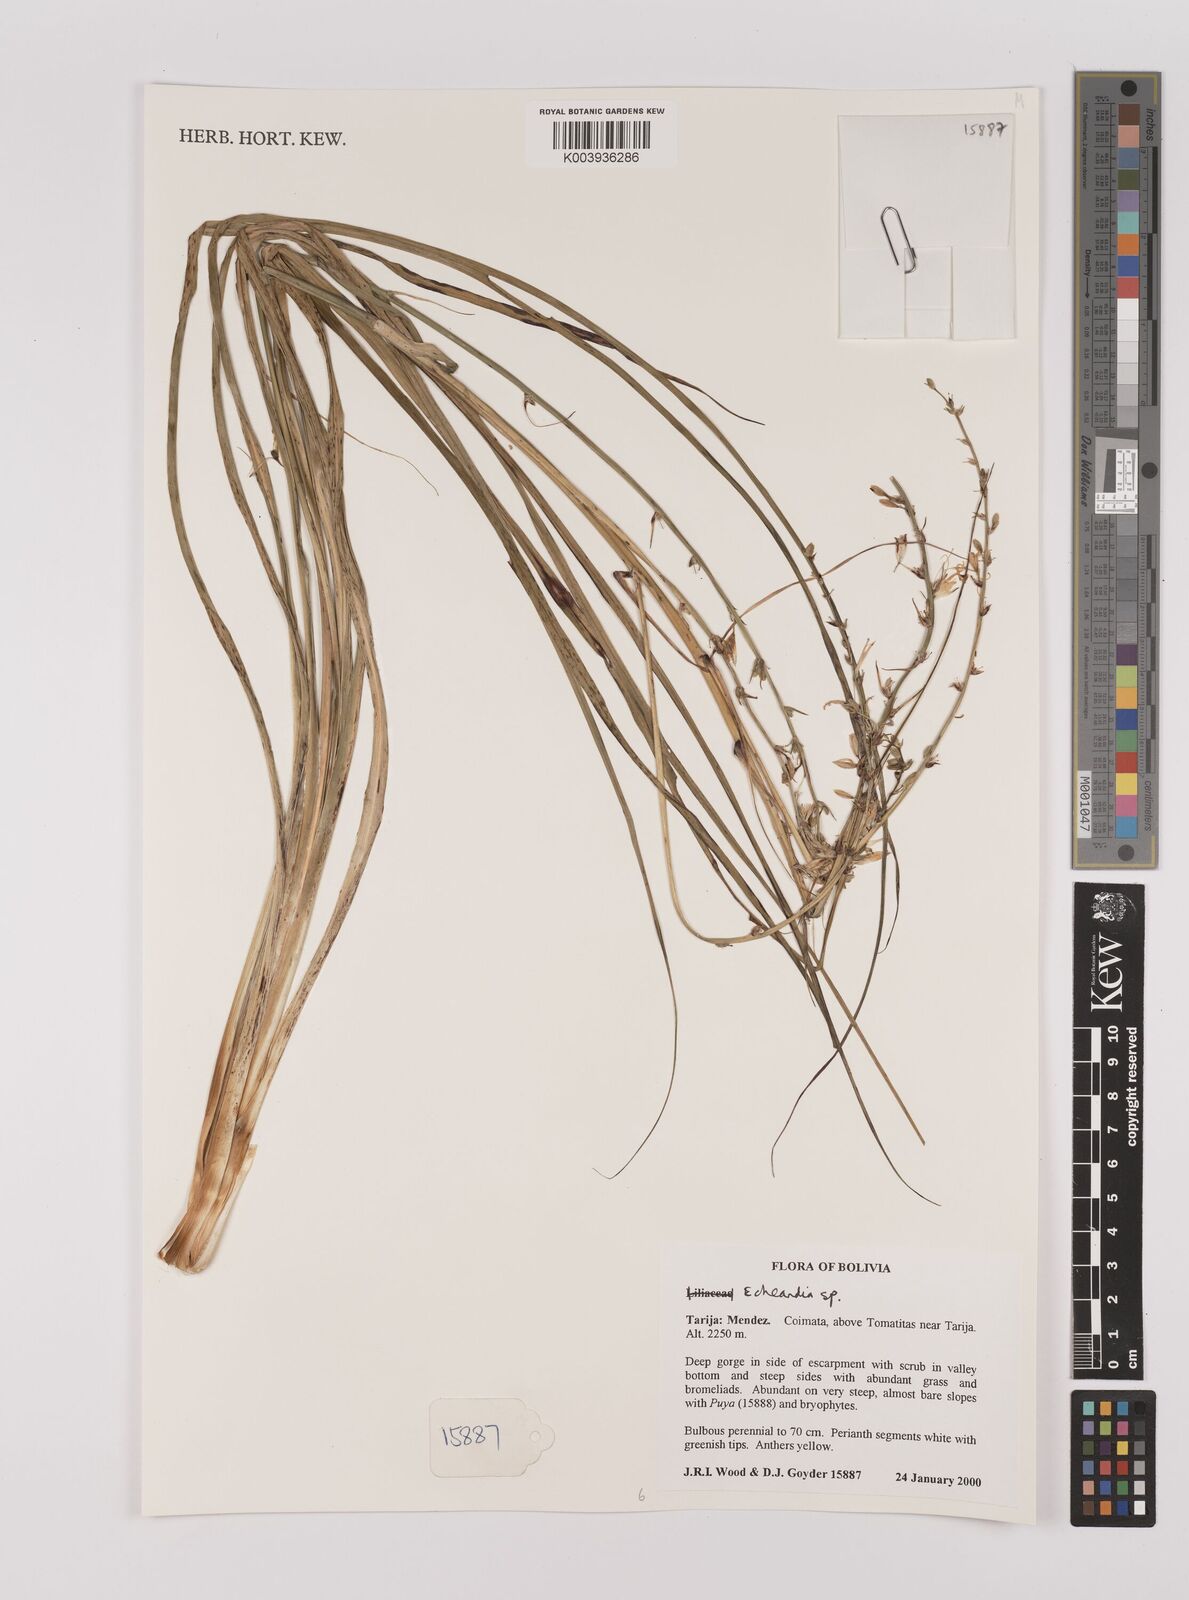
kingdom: Plantae
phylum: Tracheophyta
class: Liliopsida
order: Asparagales
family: Asparagaceae
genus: Echeandia
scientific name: Echeandia
